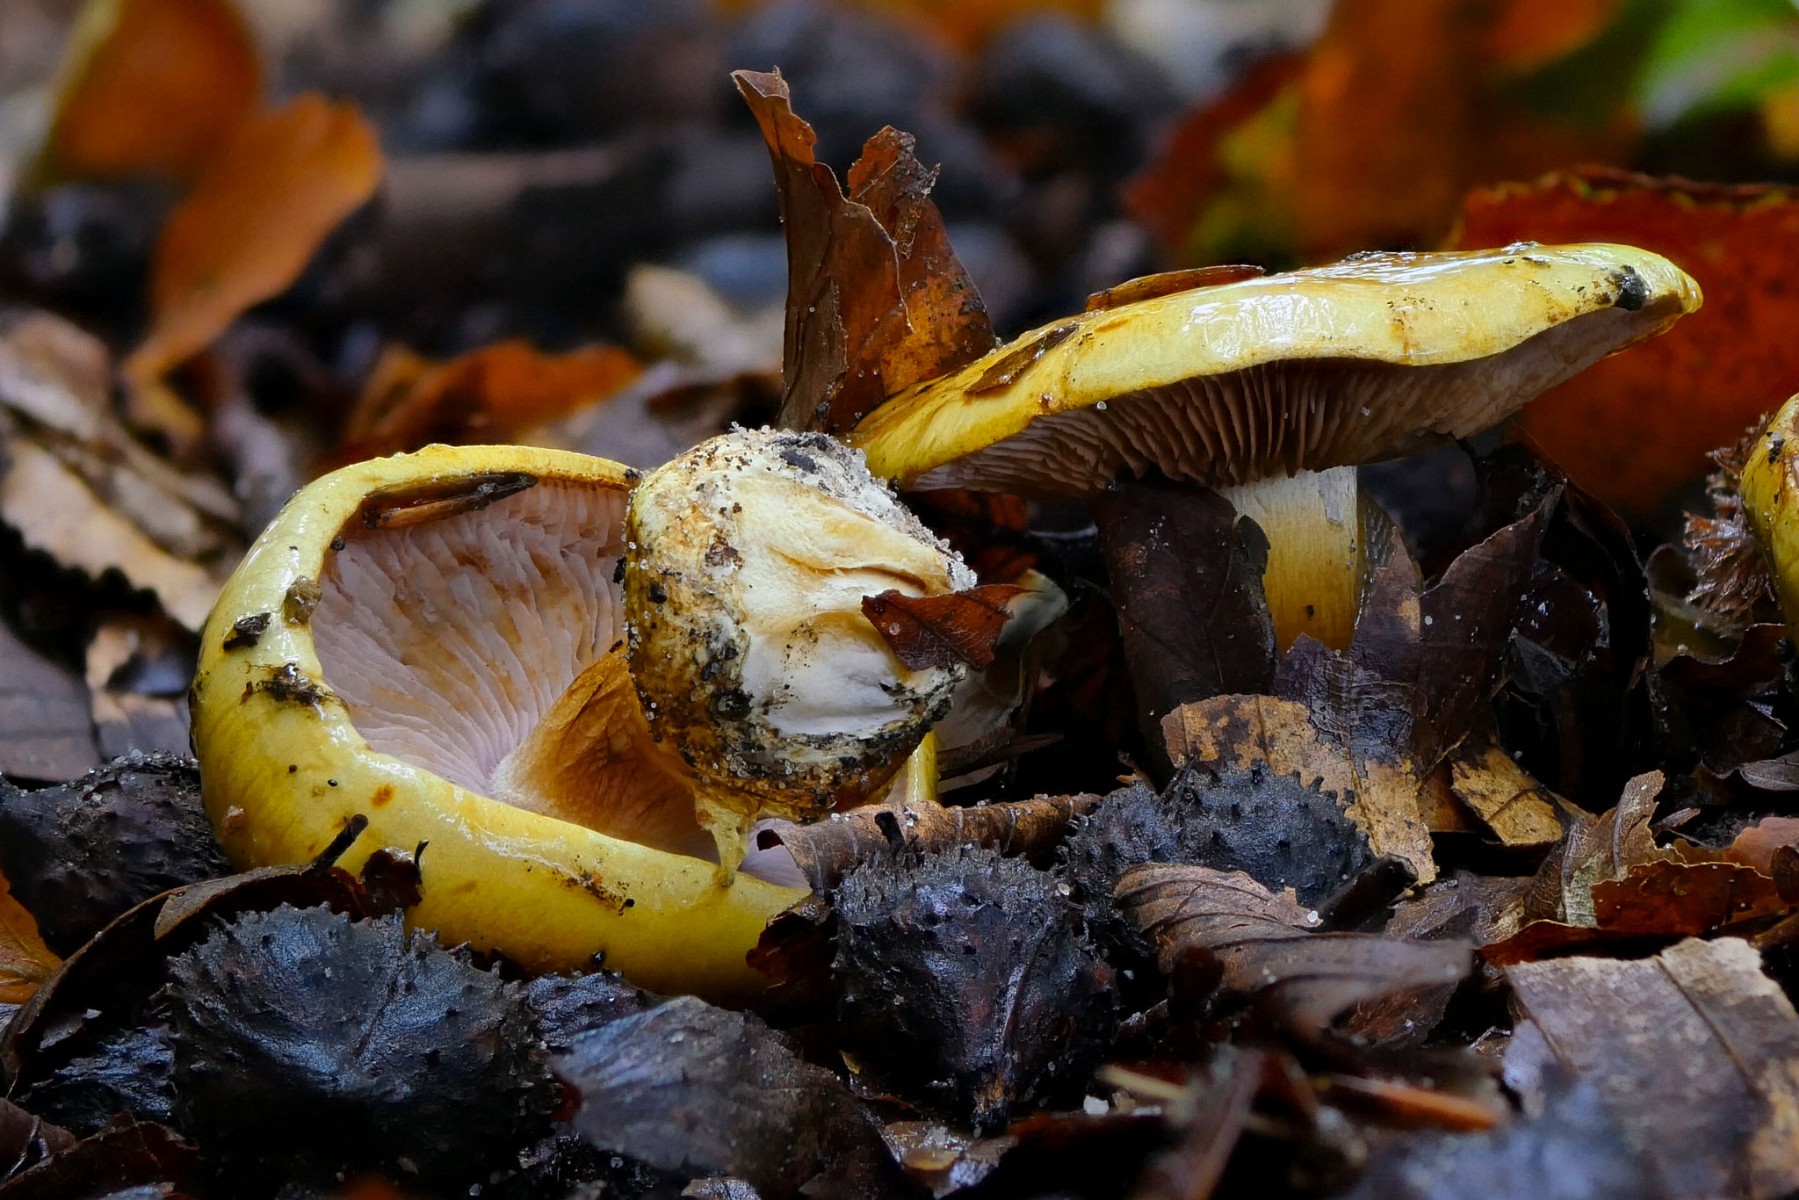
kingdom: Fungi
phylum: Basidiomycota
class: Agaricomycetes
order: Agaricales
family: Cortinariaceae
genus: Calonarius
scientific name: Calonarius callochrous
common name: lillabladet slørhat
